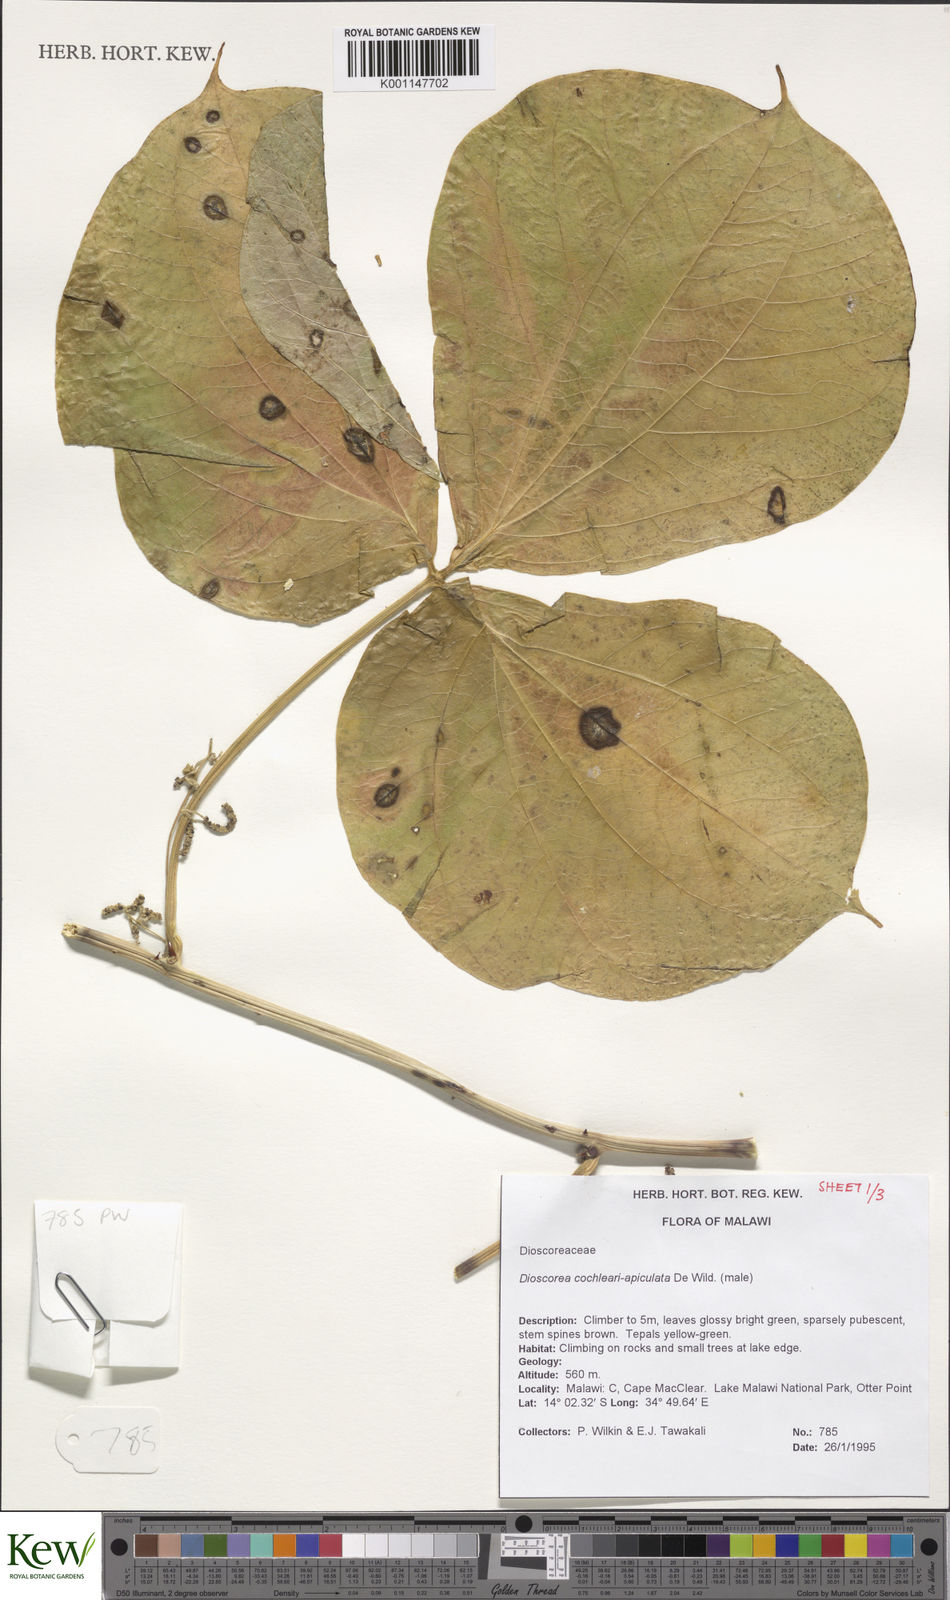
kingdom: Plantae
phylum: Tracheophyta
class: Liliopsida
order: Dioscoreales
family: Dioscoreaceae
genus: Dioscorea
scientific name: Dioscorea cochleariapiculata
